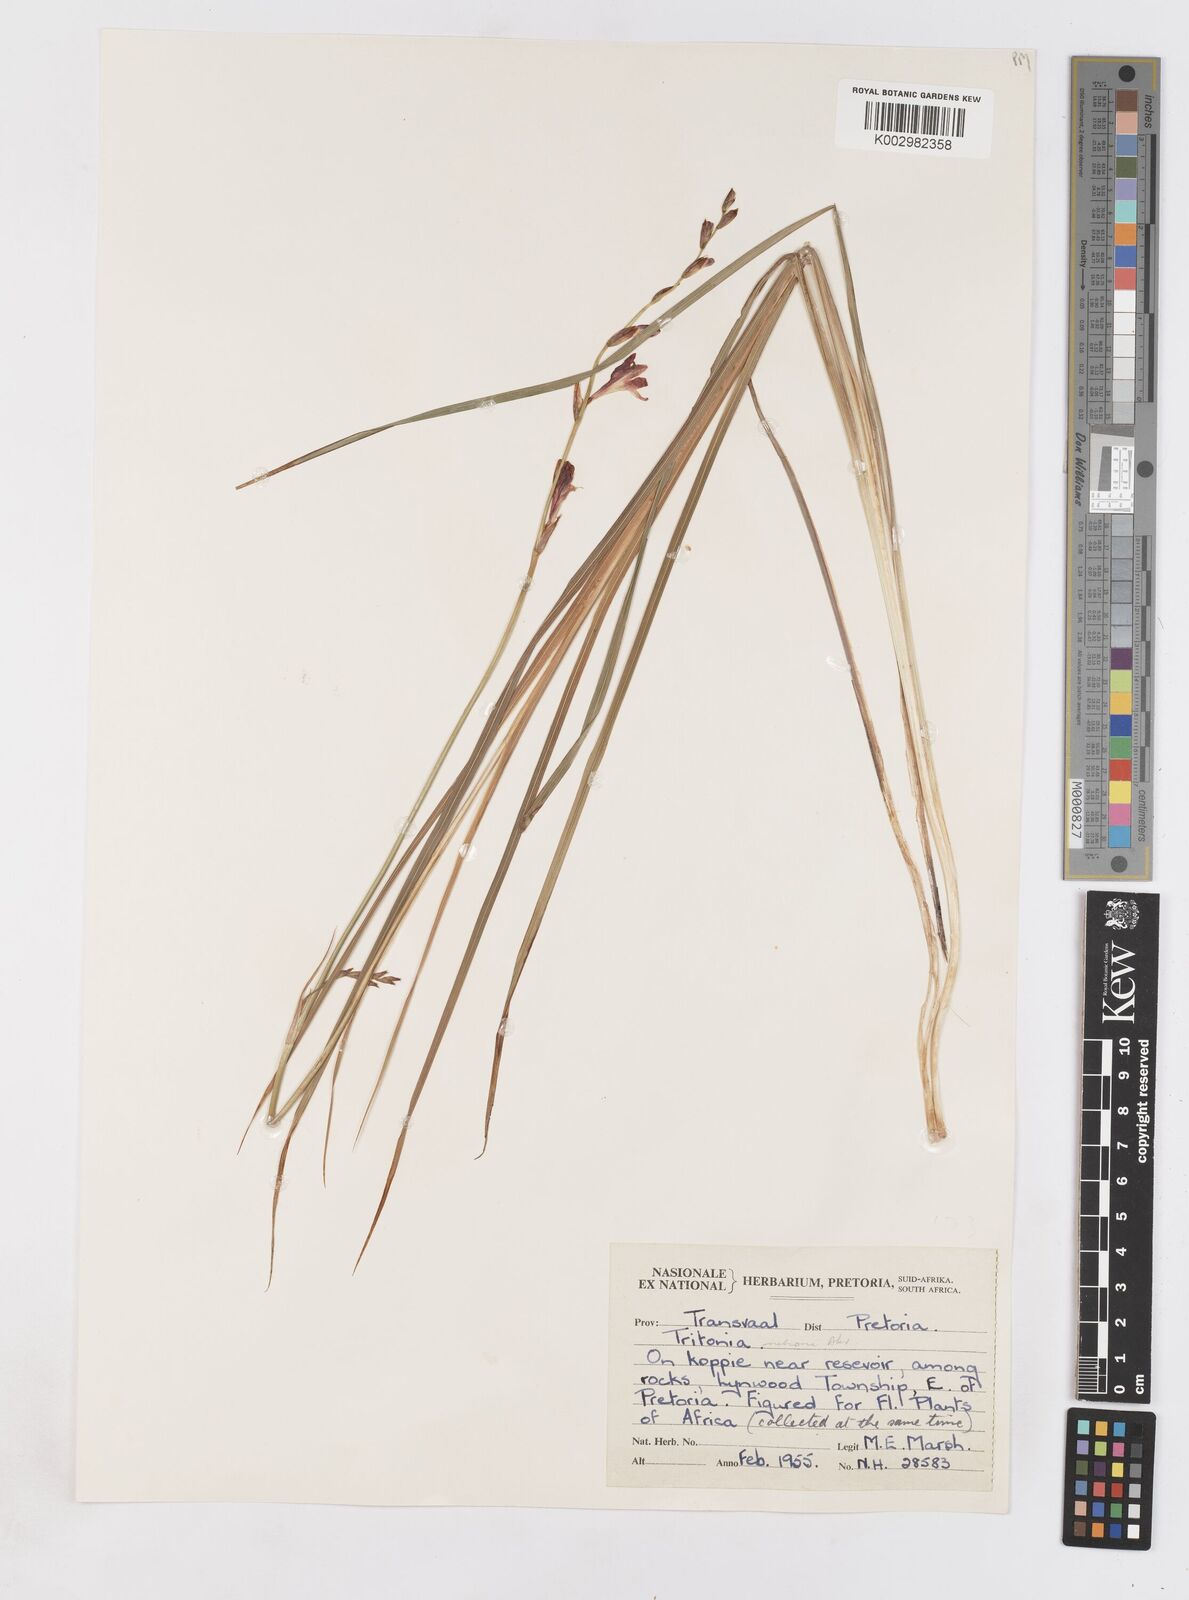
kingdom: Plantae
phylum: Tracheophyta
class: Liliopsida
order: Asparagales
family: Iridaceae
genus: Tritonia
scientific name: Tritonia nelsonii
